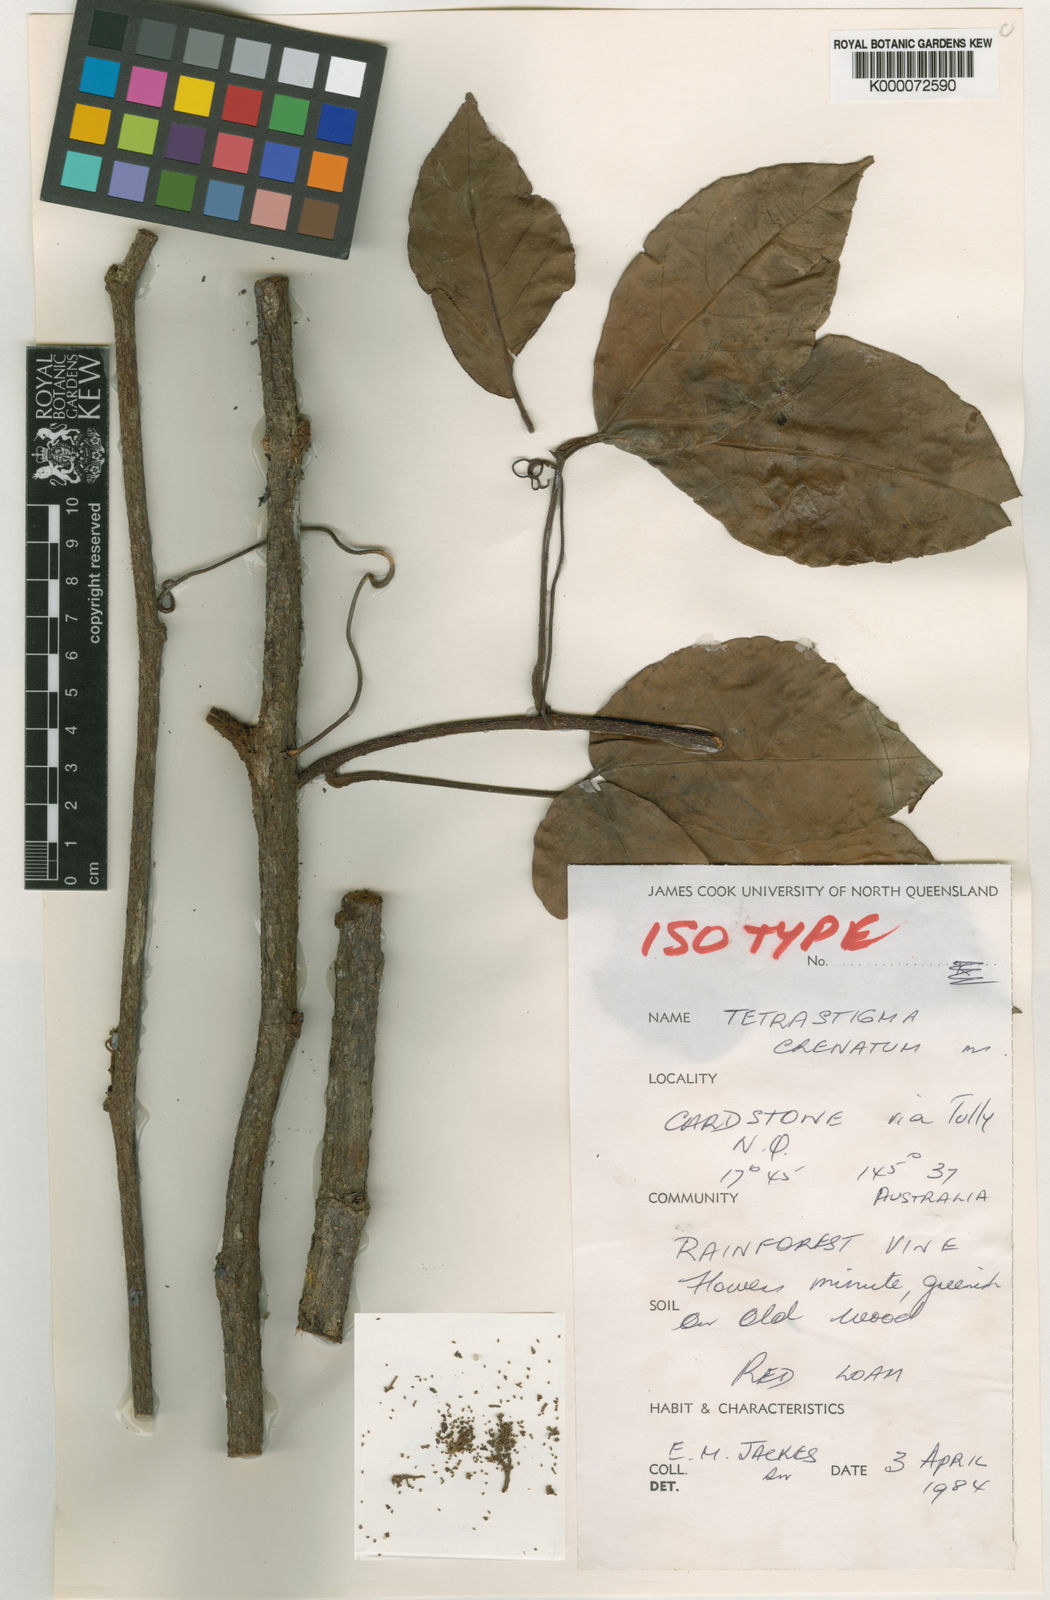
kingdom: Plantae
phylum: Tracheophyta
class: Magnoliopsida
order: Vitales
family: Vitaceae
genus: Tetrastigma
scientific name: Tetrastigma crenatum
